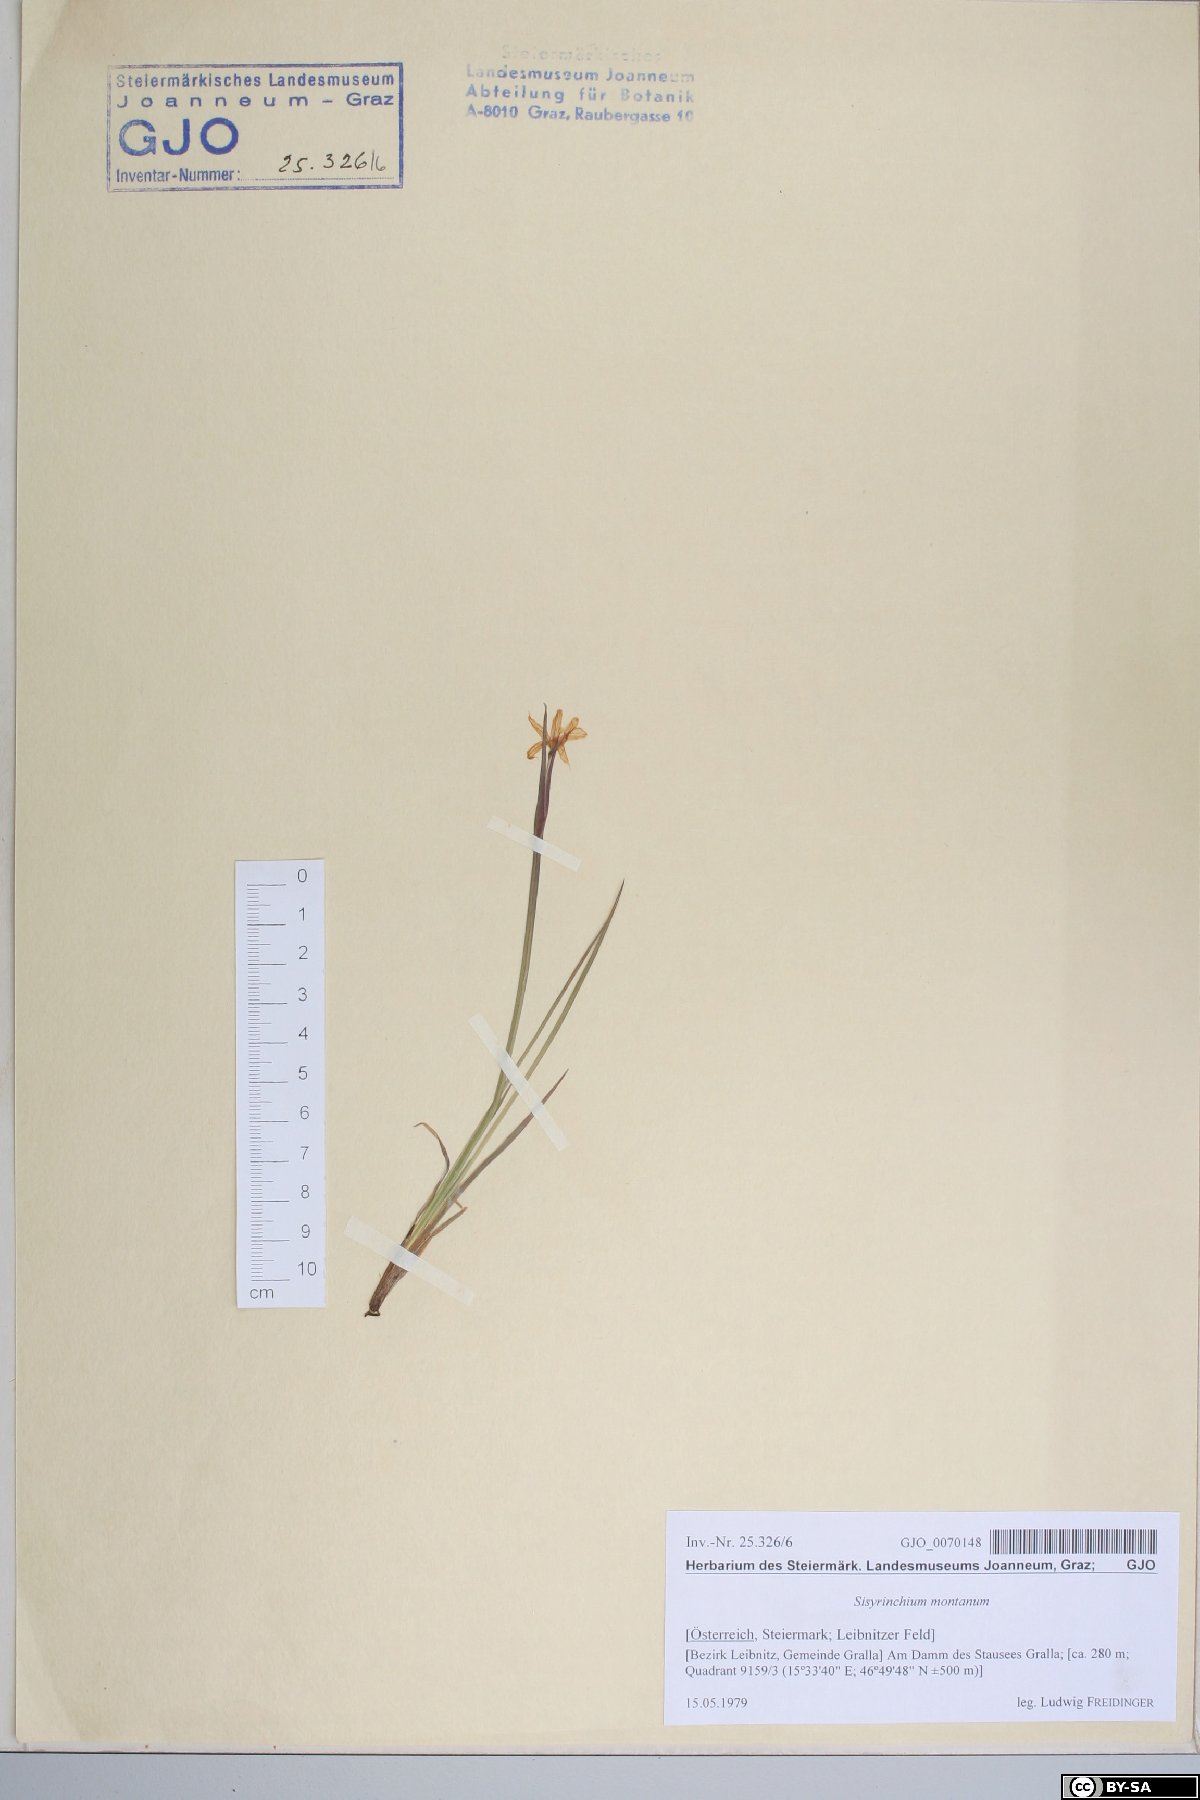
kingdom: Plantae
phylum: Tracheophyta
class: Liliopsida
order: Asparagales
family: Iridaceae
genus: Sisyrinchium
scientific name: Sisyrinchium montanum
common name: American blue-eyed-grass
